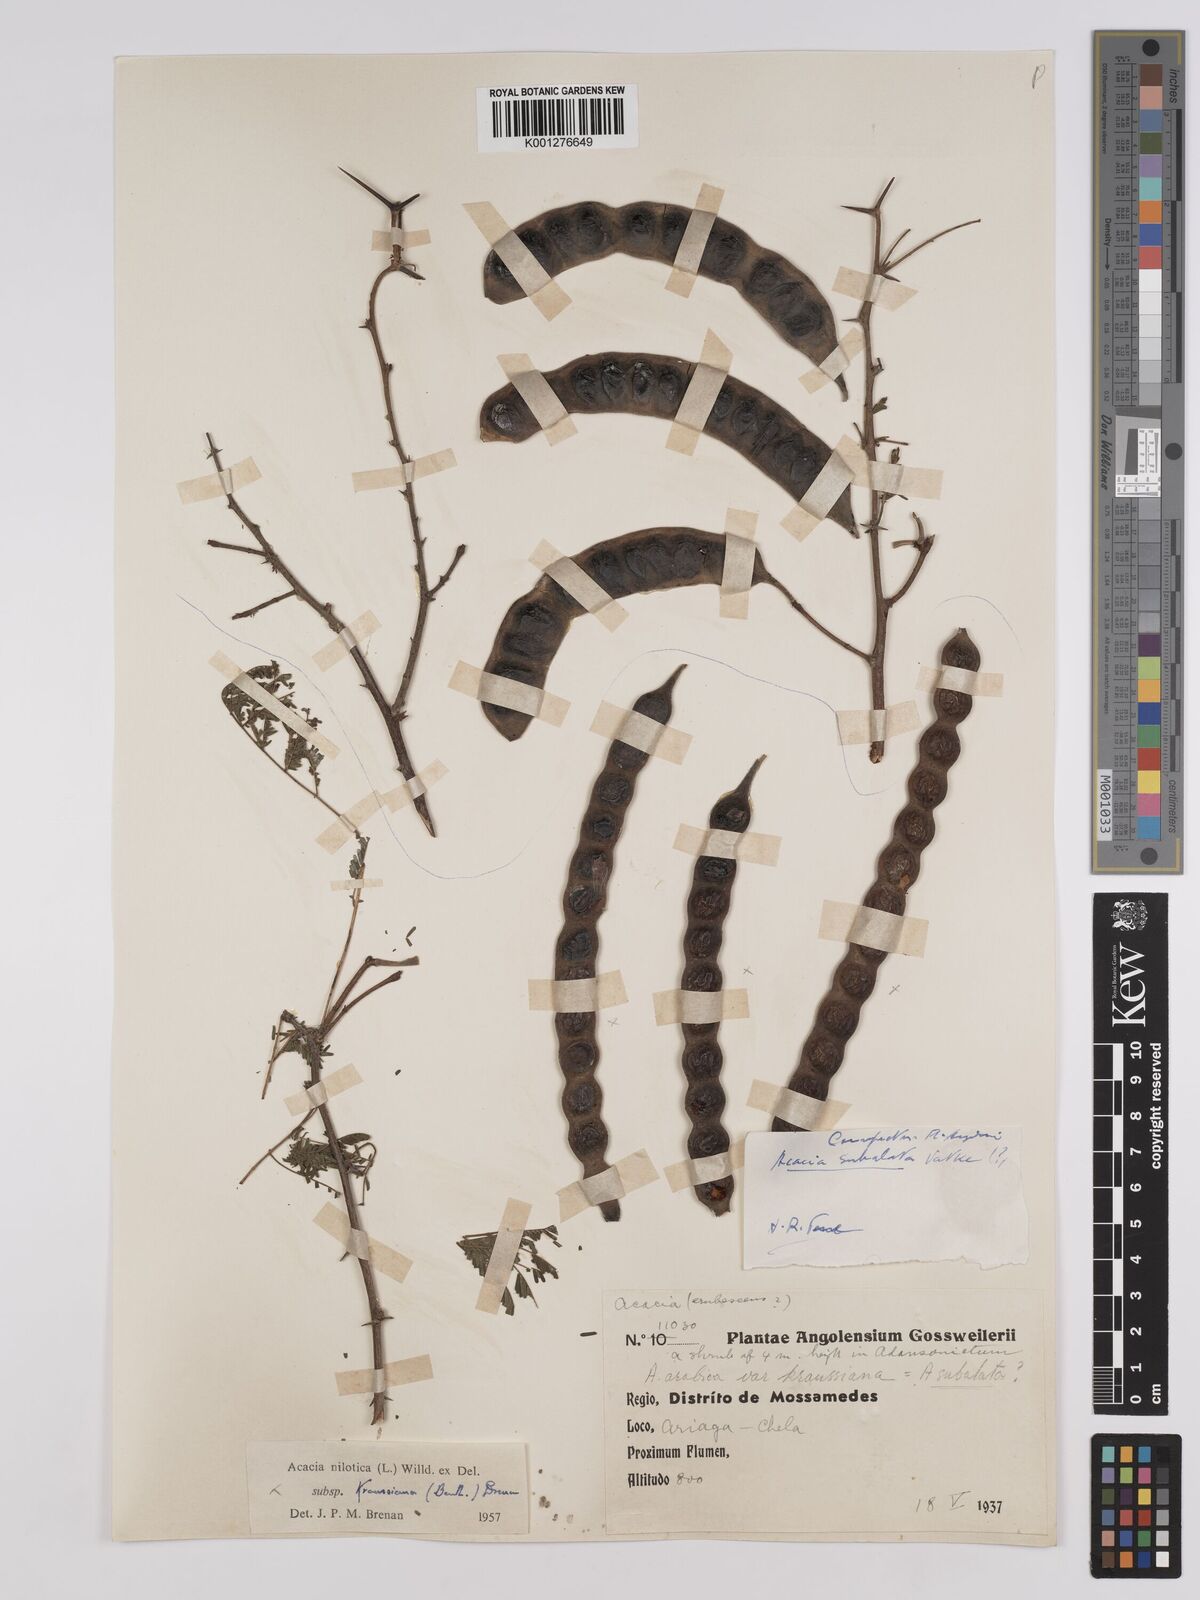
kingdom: Plantae
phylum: Tracheophyta
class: Magnoliopsida
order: Fabales
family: Fabaceae
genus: Vachellia
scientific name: Vachellia nilotica
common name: Arabic gumtree
